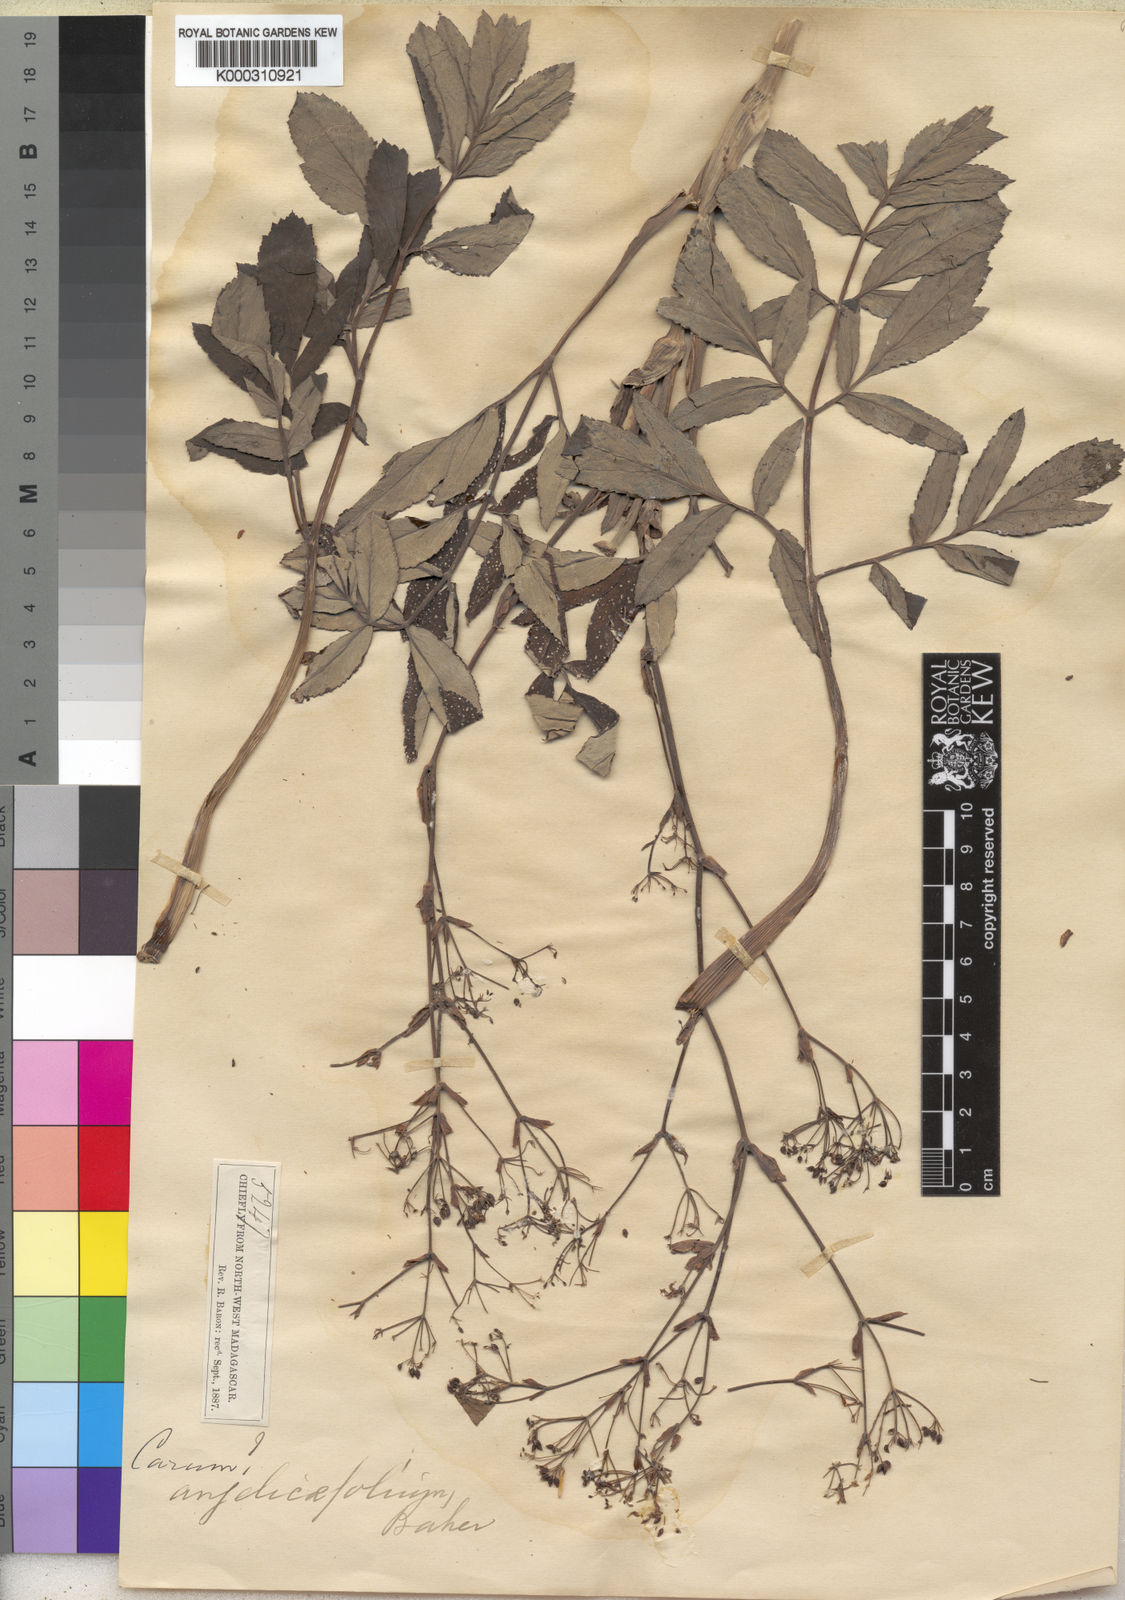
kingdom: Plantae
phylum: Tracheophyta
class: Magnoliopsida
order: Apiales
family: Apiaceae
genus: Carum
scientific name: Carum angelicifolium
